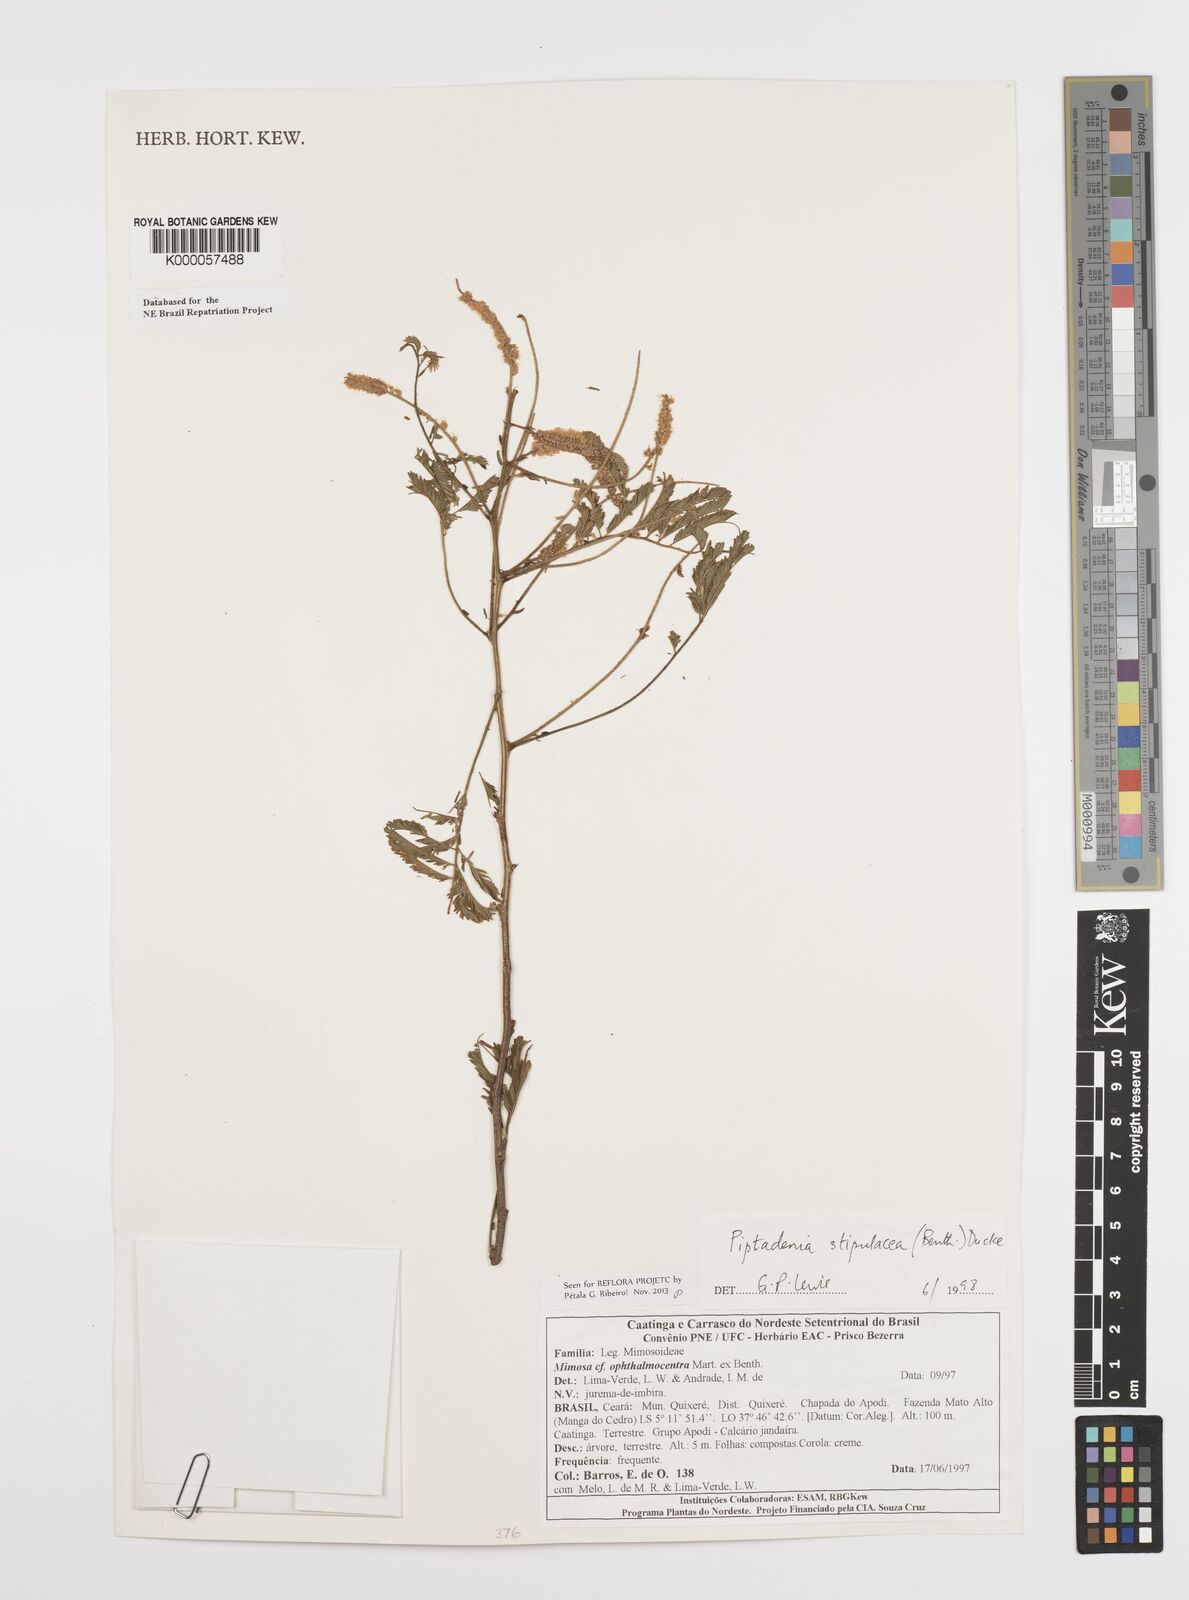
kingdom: Plantae
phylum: Tracheophyta
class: Magnoliopsida
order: Fabales
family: Fabaceae
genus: Piptadenia
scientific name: Piptadenia retusa
